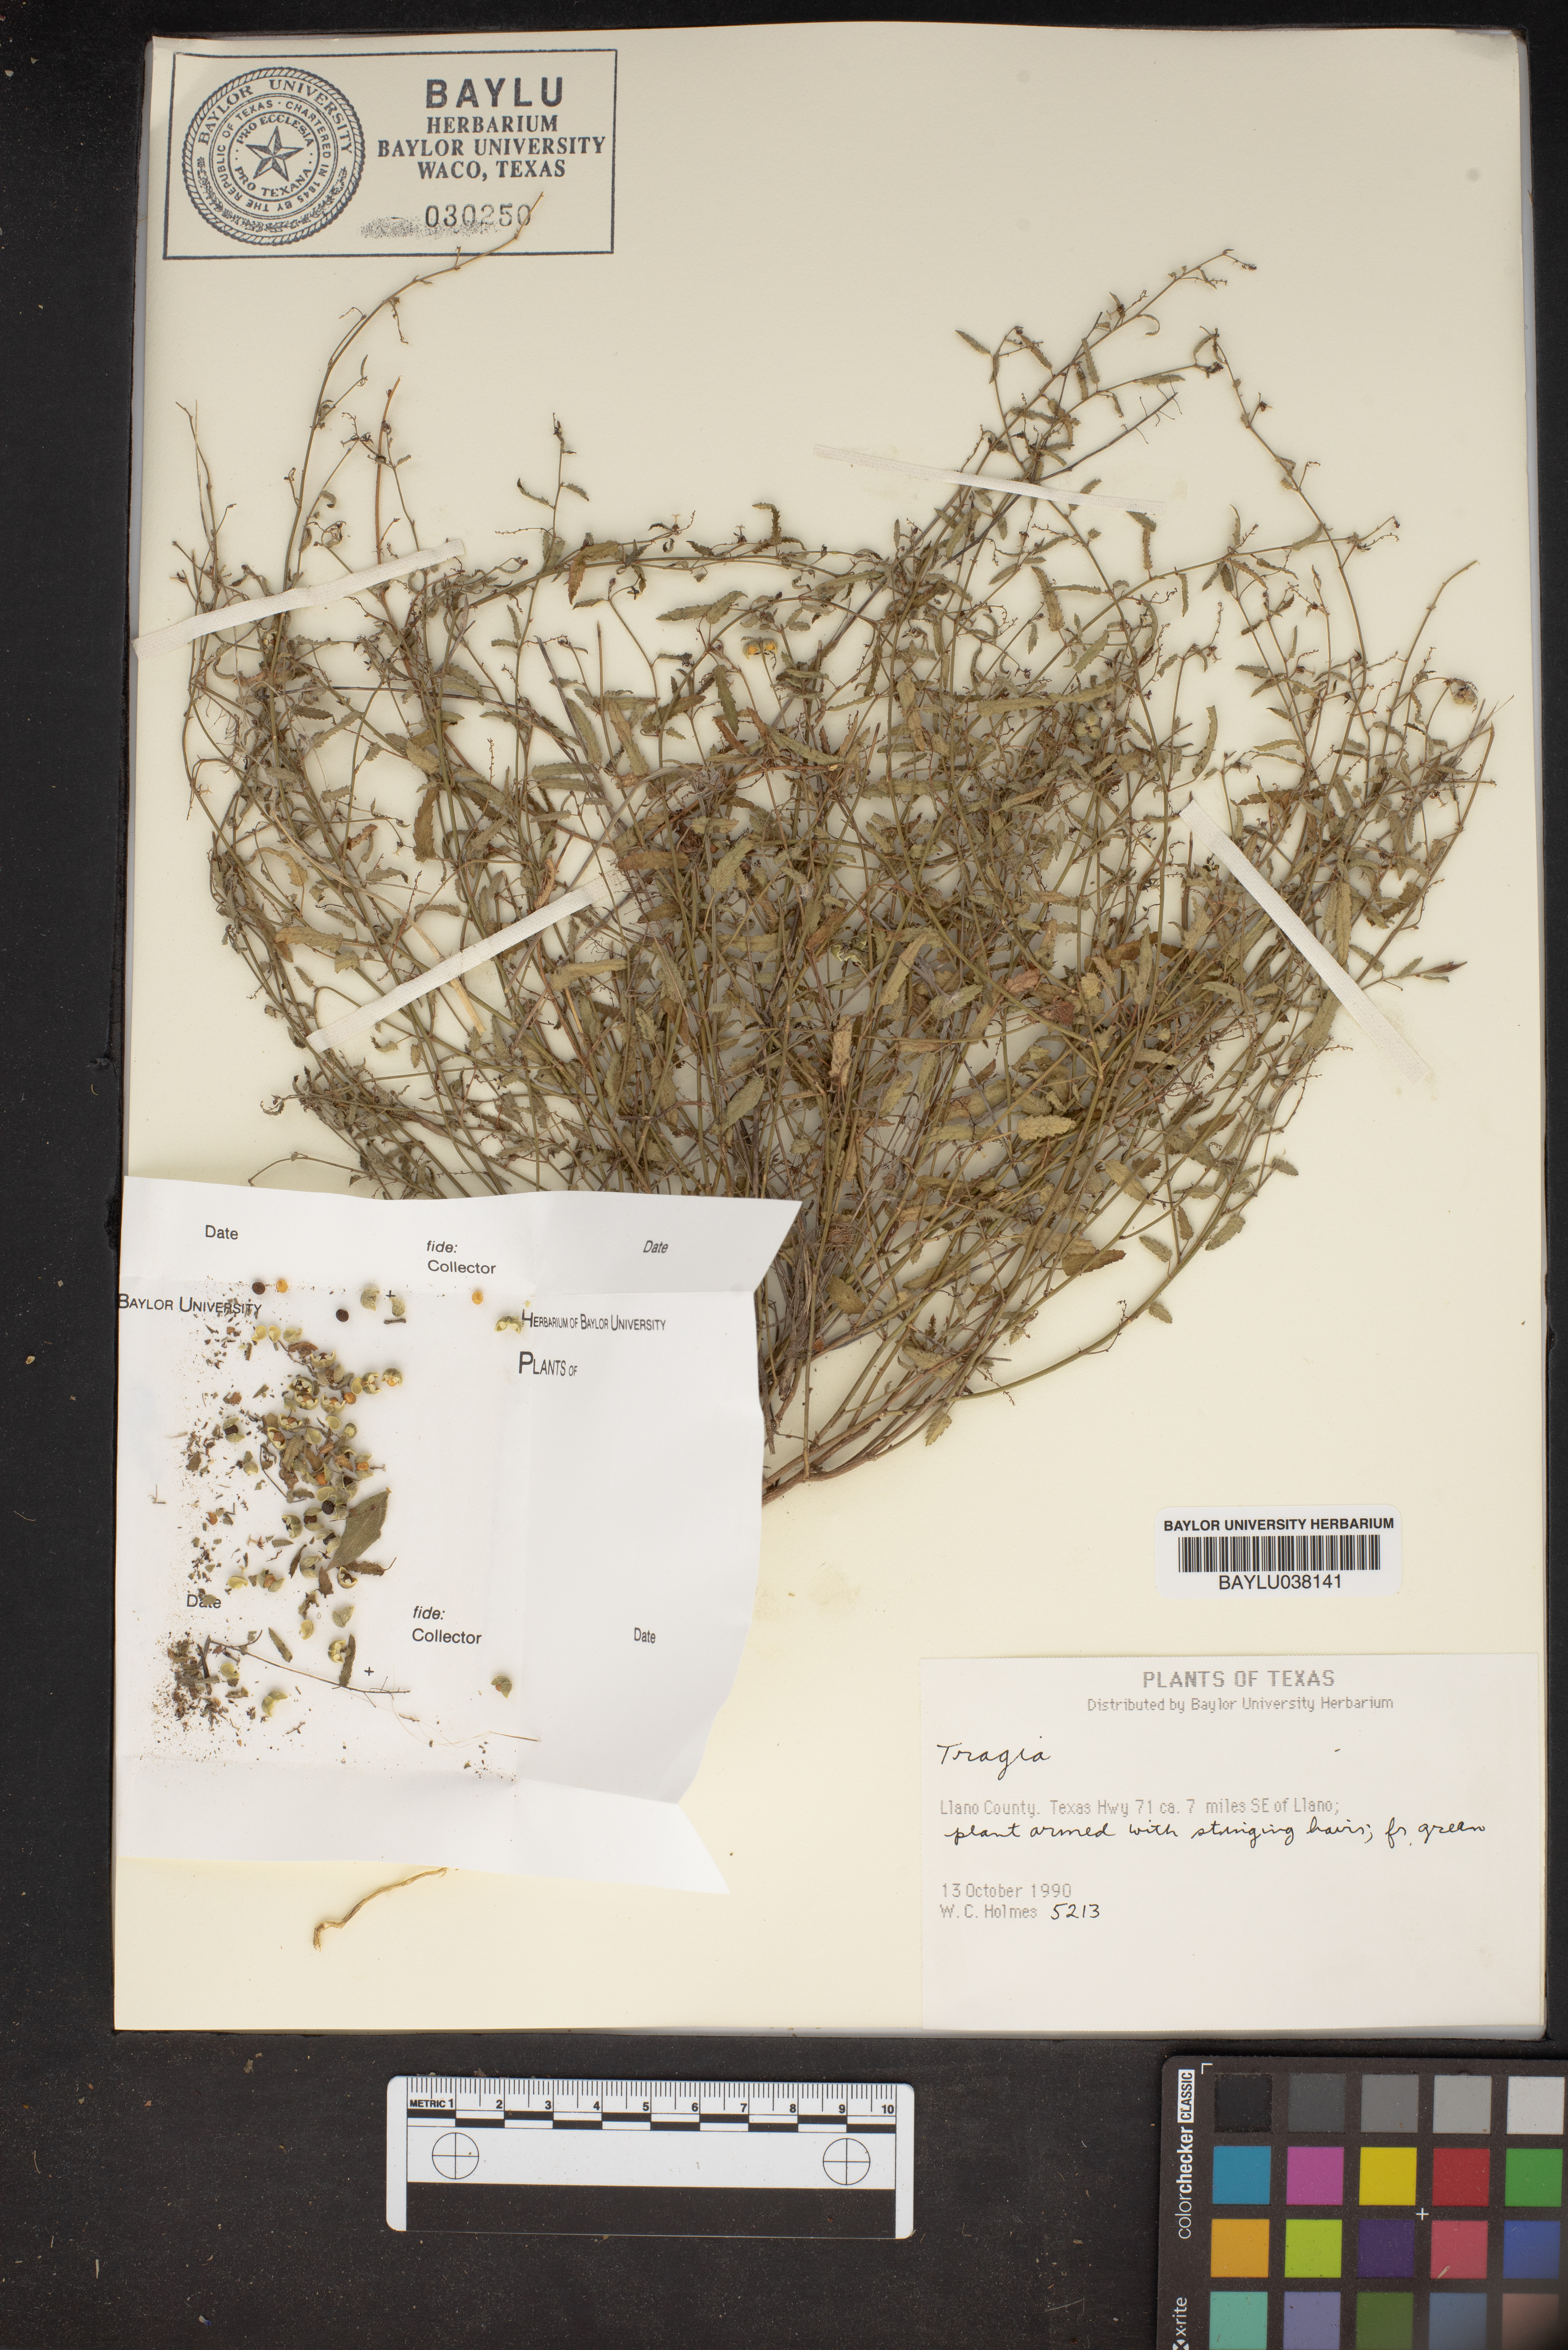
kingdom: Plantae
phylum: Tracheophyta
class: Magnoliopsida
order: Malpighiales
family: Euphorbiaceae
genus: Tragia
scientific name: Tragia
